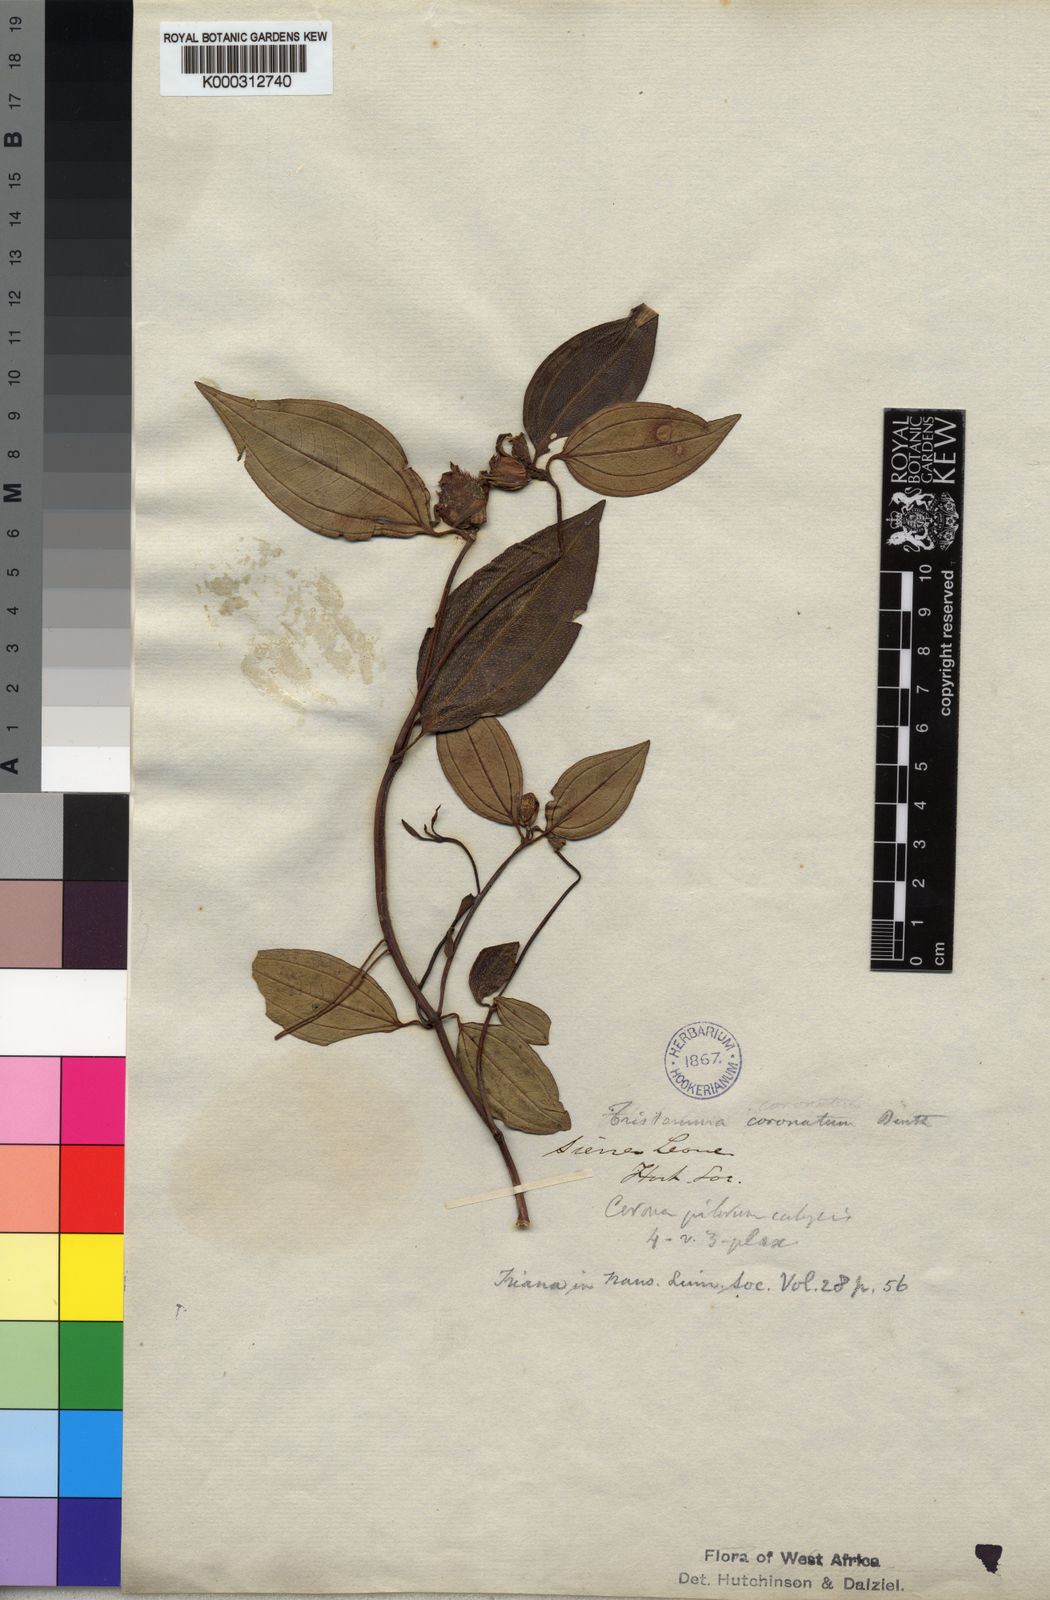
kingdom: Plantae
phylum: Tracheophyta
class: Magnoliopsida
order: Myrtales
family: Melastomataceae
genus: Tristemma
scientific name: Tristemma coronatum
